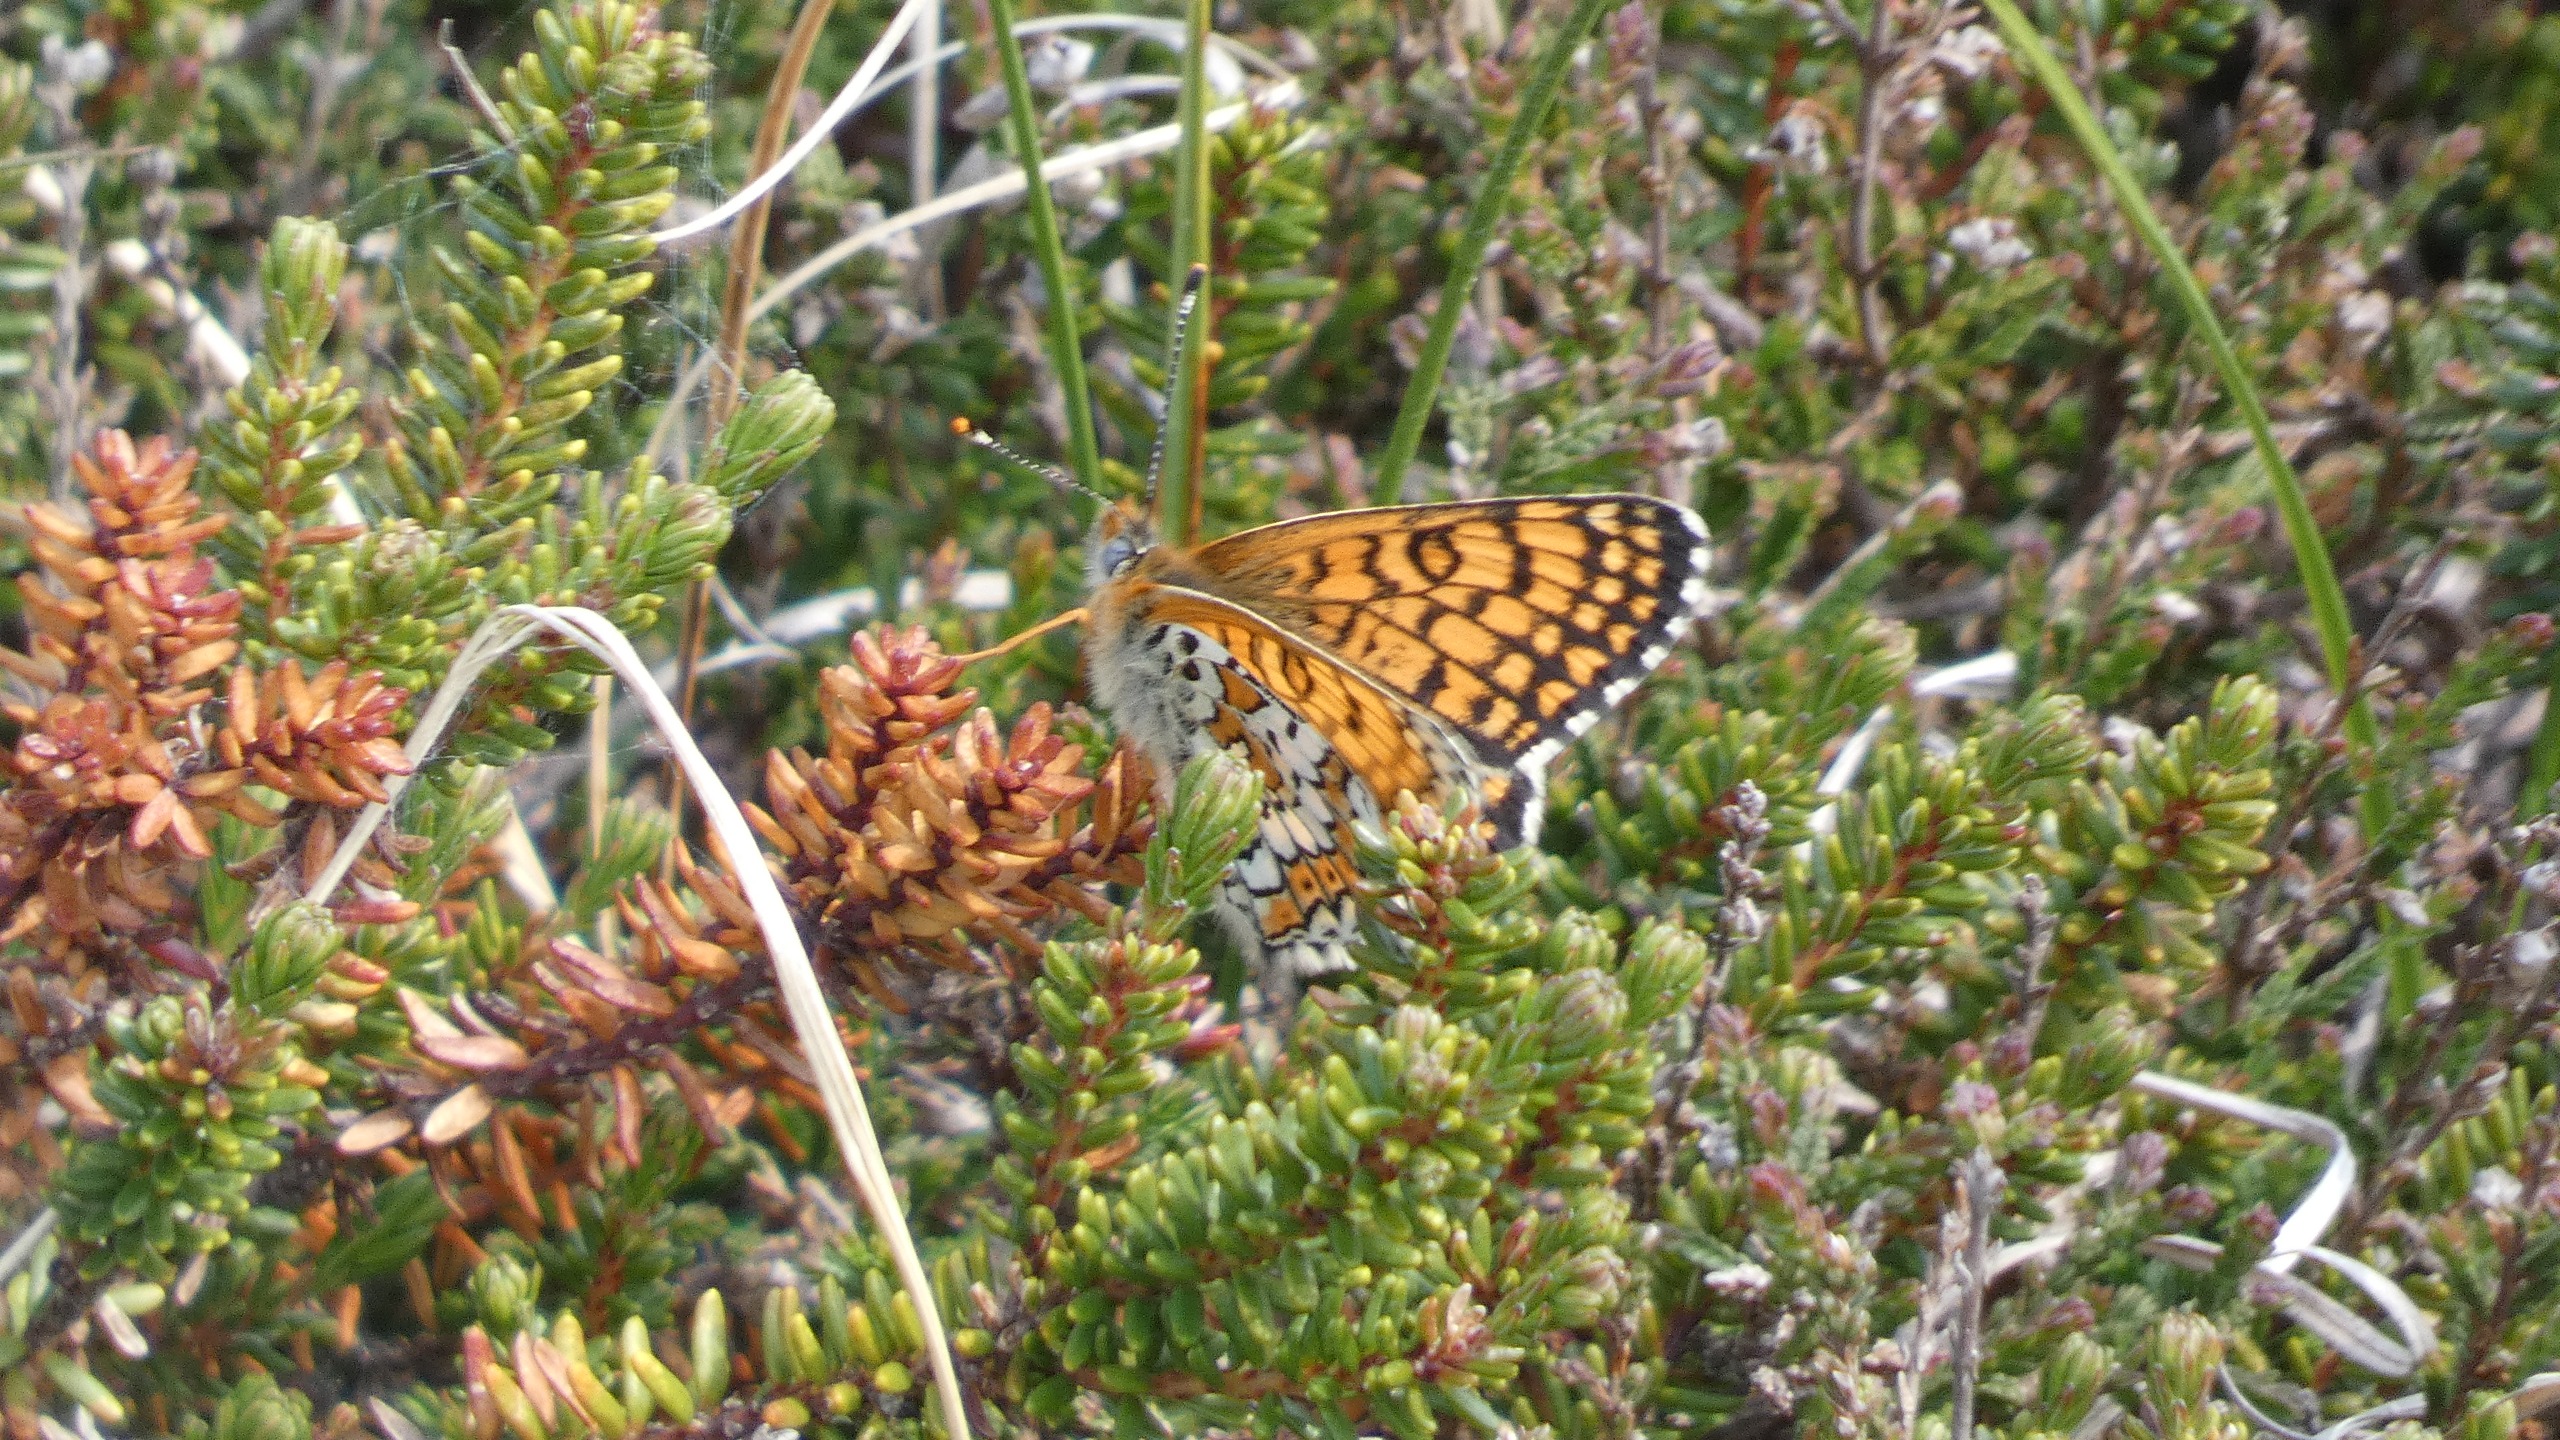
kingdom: Animalia
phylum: Arthropoda
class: Insecta
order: Lepidoptera
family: Nymphalidae
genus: Melitaea
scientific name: Melitaea cinxia
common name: Okkergul pletvinge
